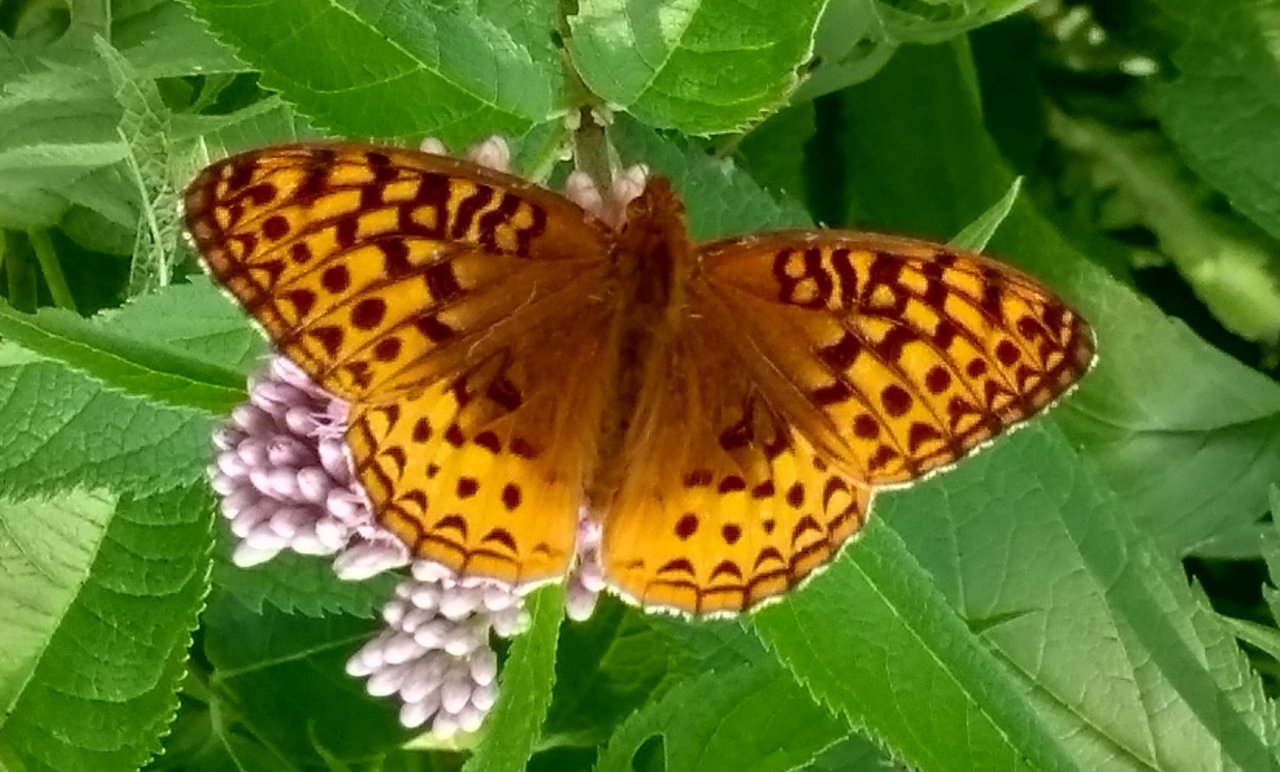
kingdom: Animalia
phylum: Arthropoda
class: Insecta
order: Lepidoptera
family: Nymphalidae
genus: Speyeria
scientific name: Speyeria cybele
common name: Great Spangled Fritillary
